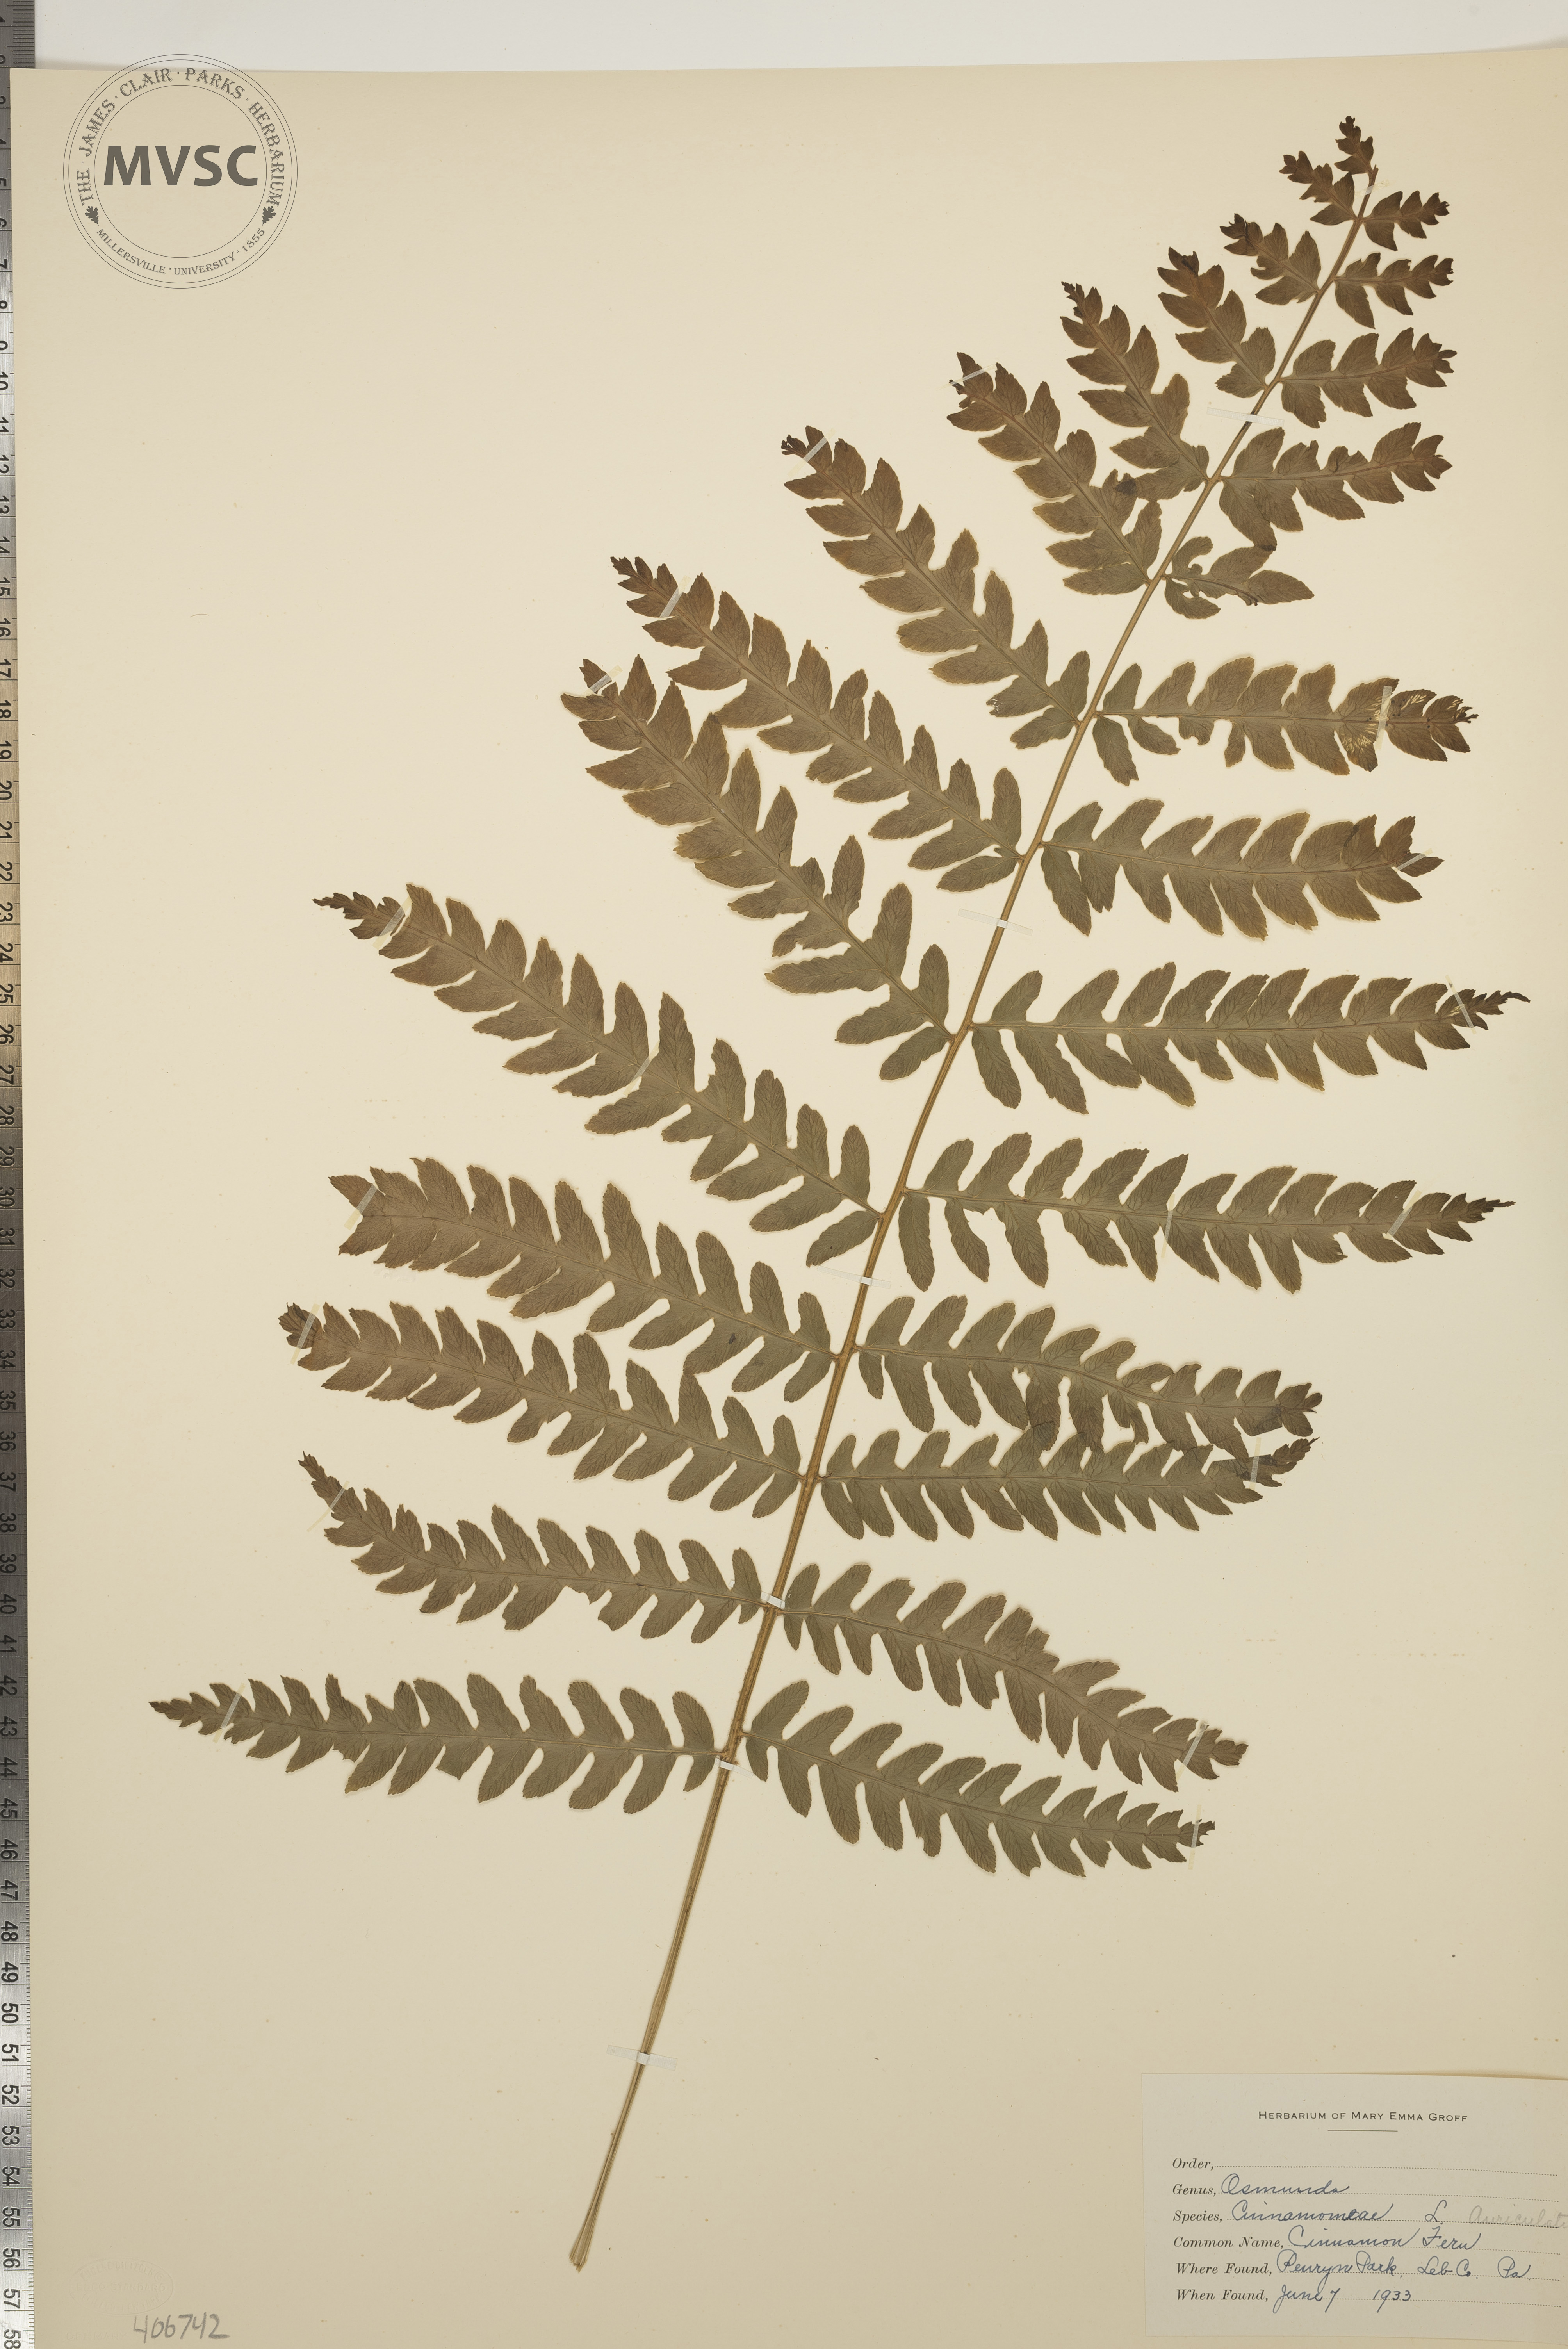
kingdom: Plantae
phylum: Tracheophyta
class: Polypodiopsida
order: Osmundales
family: Osmundaceae
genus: Osmundastrum
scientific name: Osmundastrum cinnamomeum
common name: Cinnamon fern
